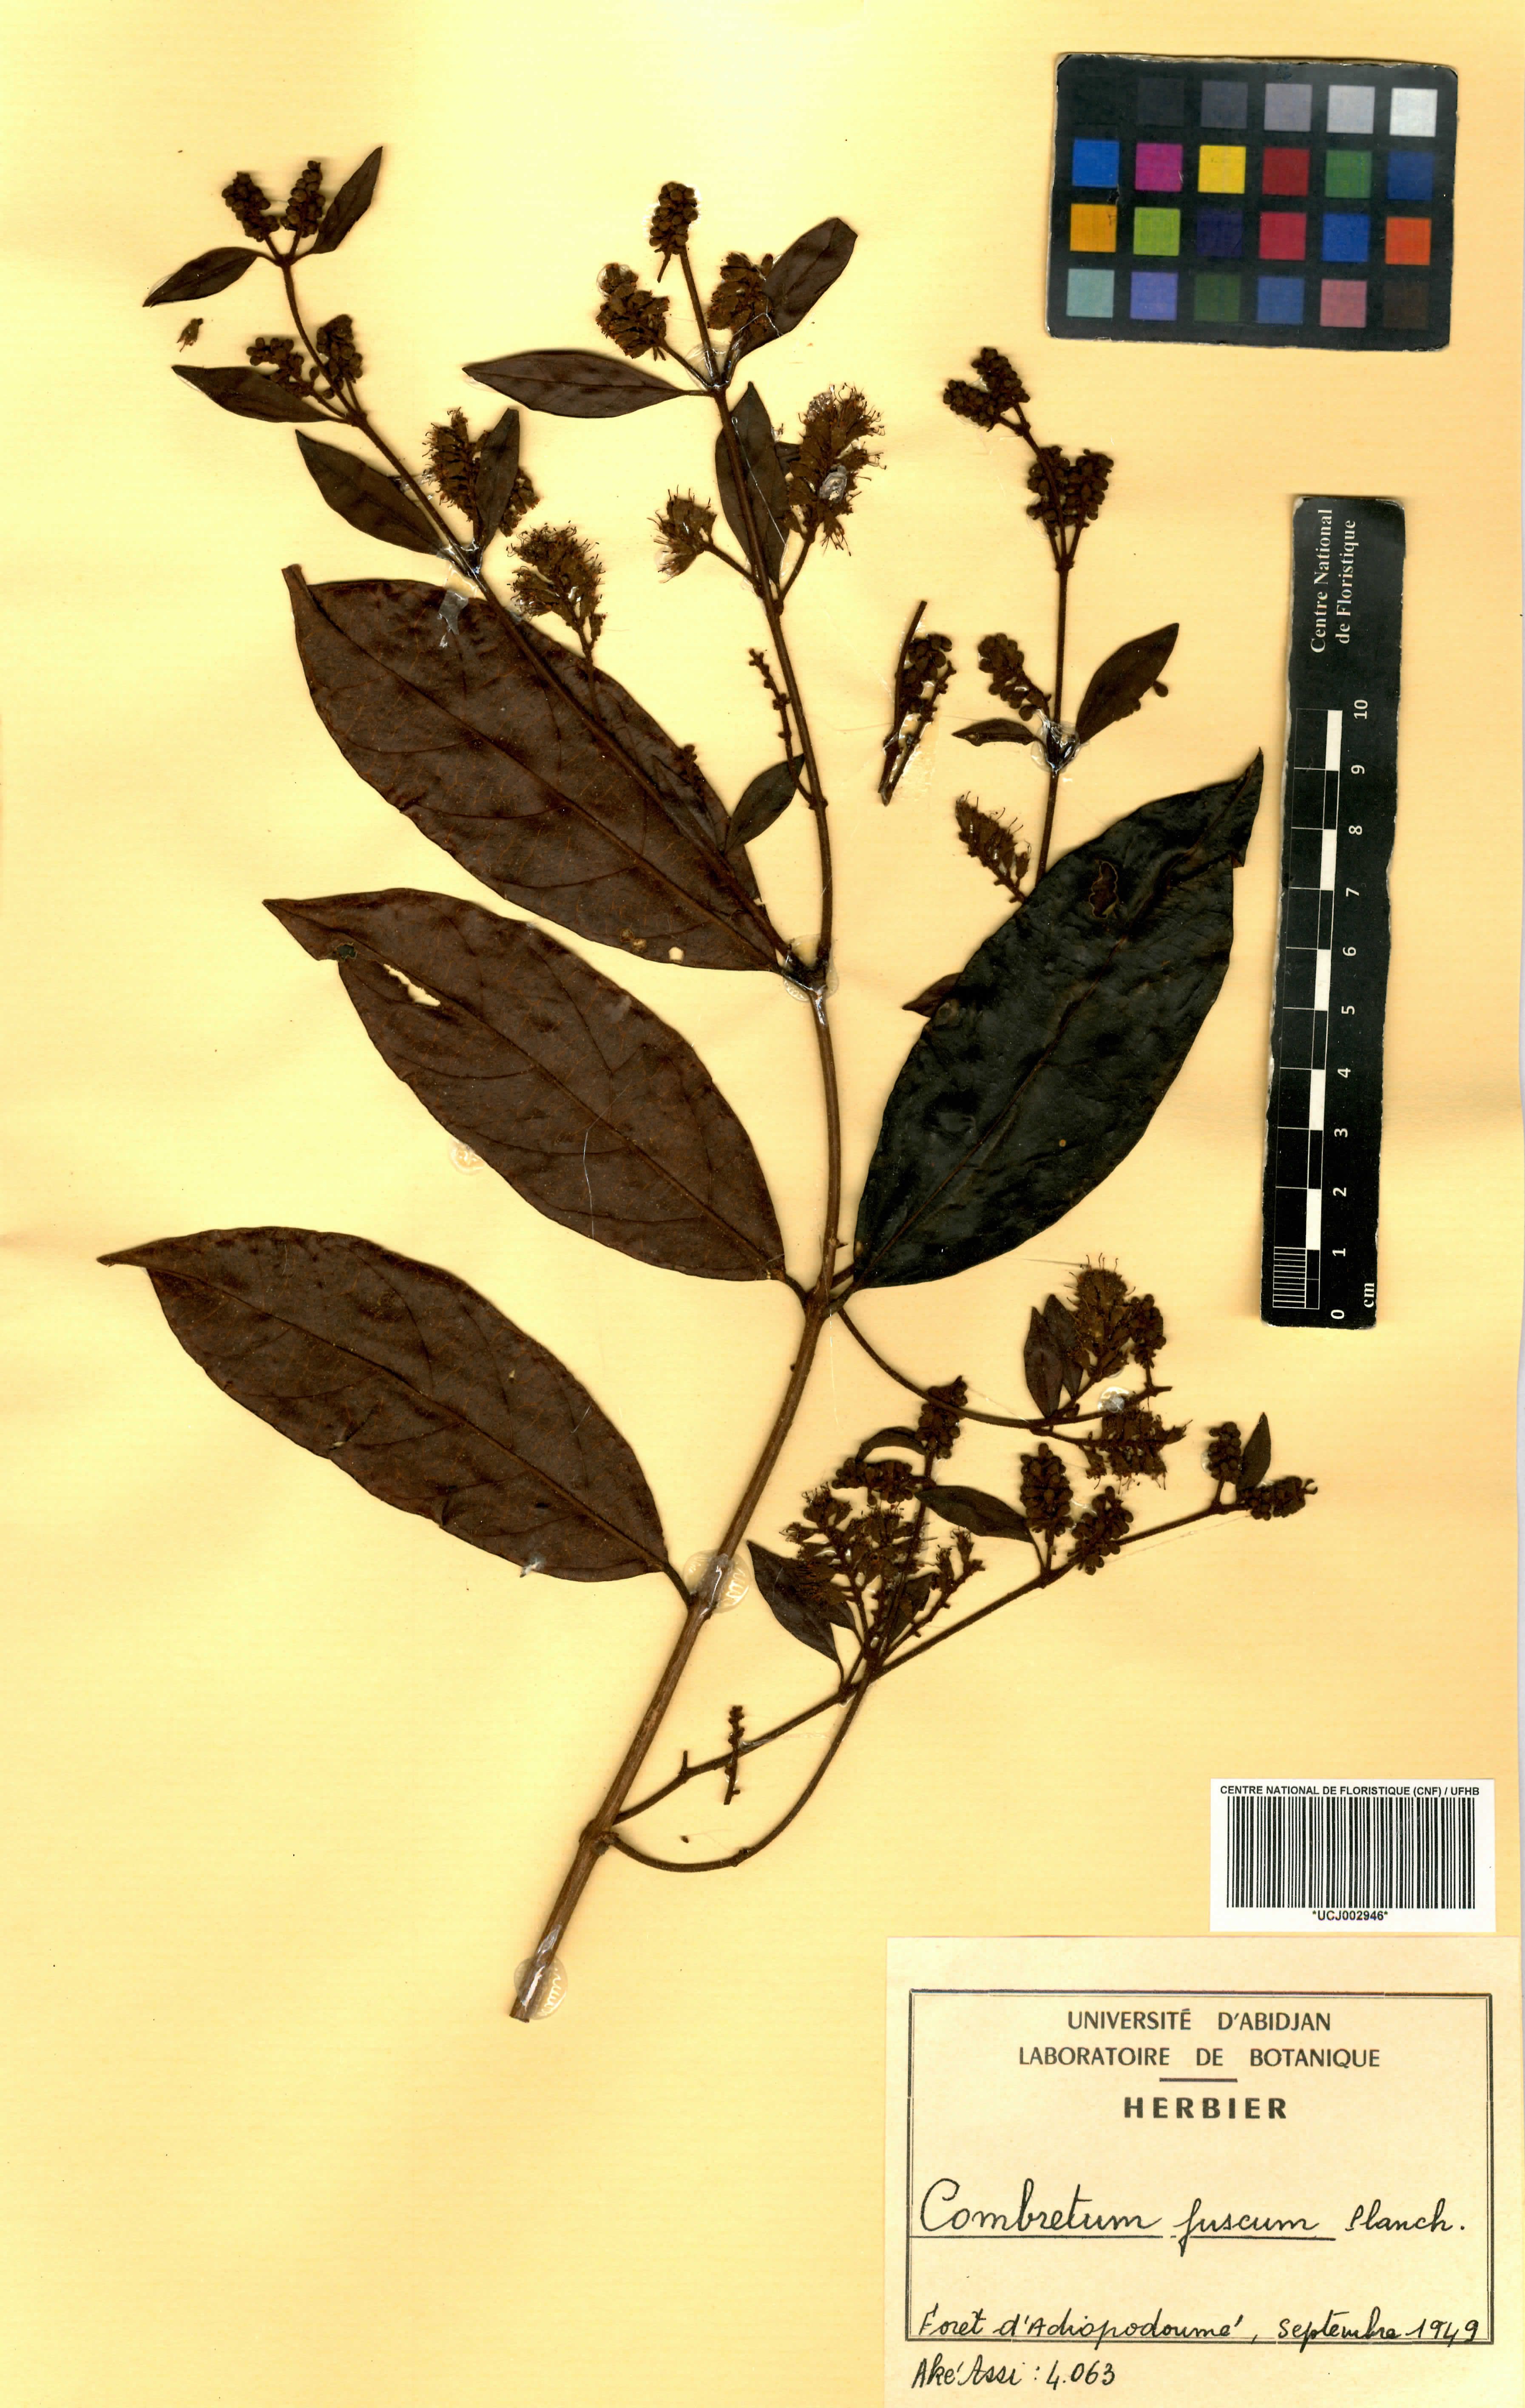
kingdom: Plantae
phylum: Tracheophyta
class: Magnoliopsida
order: Myrtales
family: Combretaceae
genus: Combretum
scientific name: Combretum fuscum
